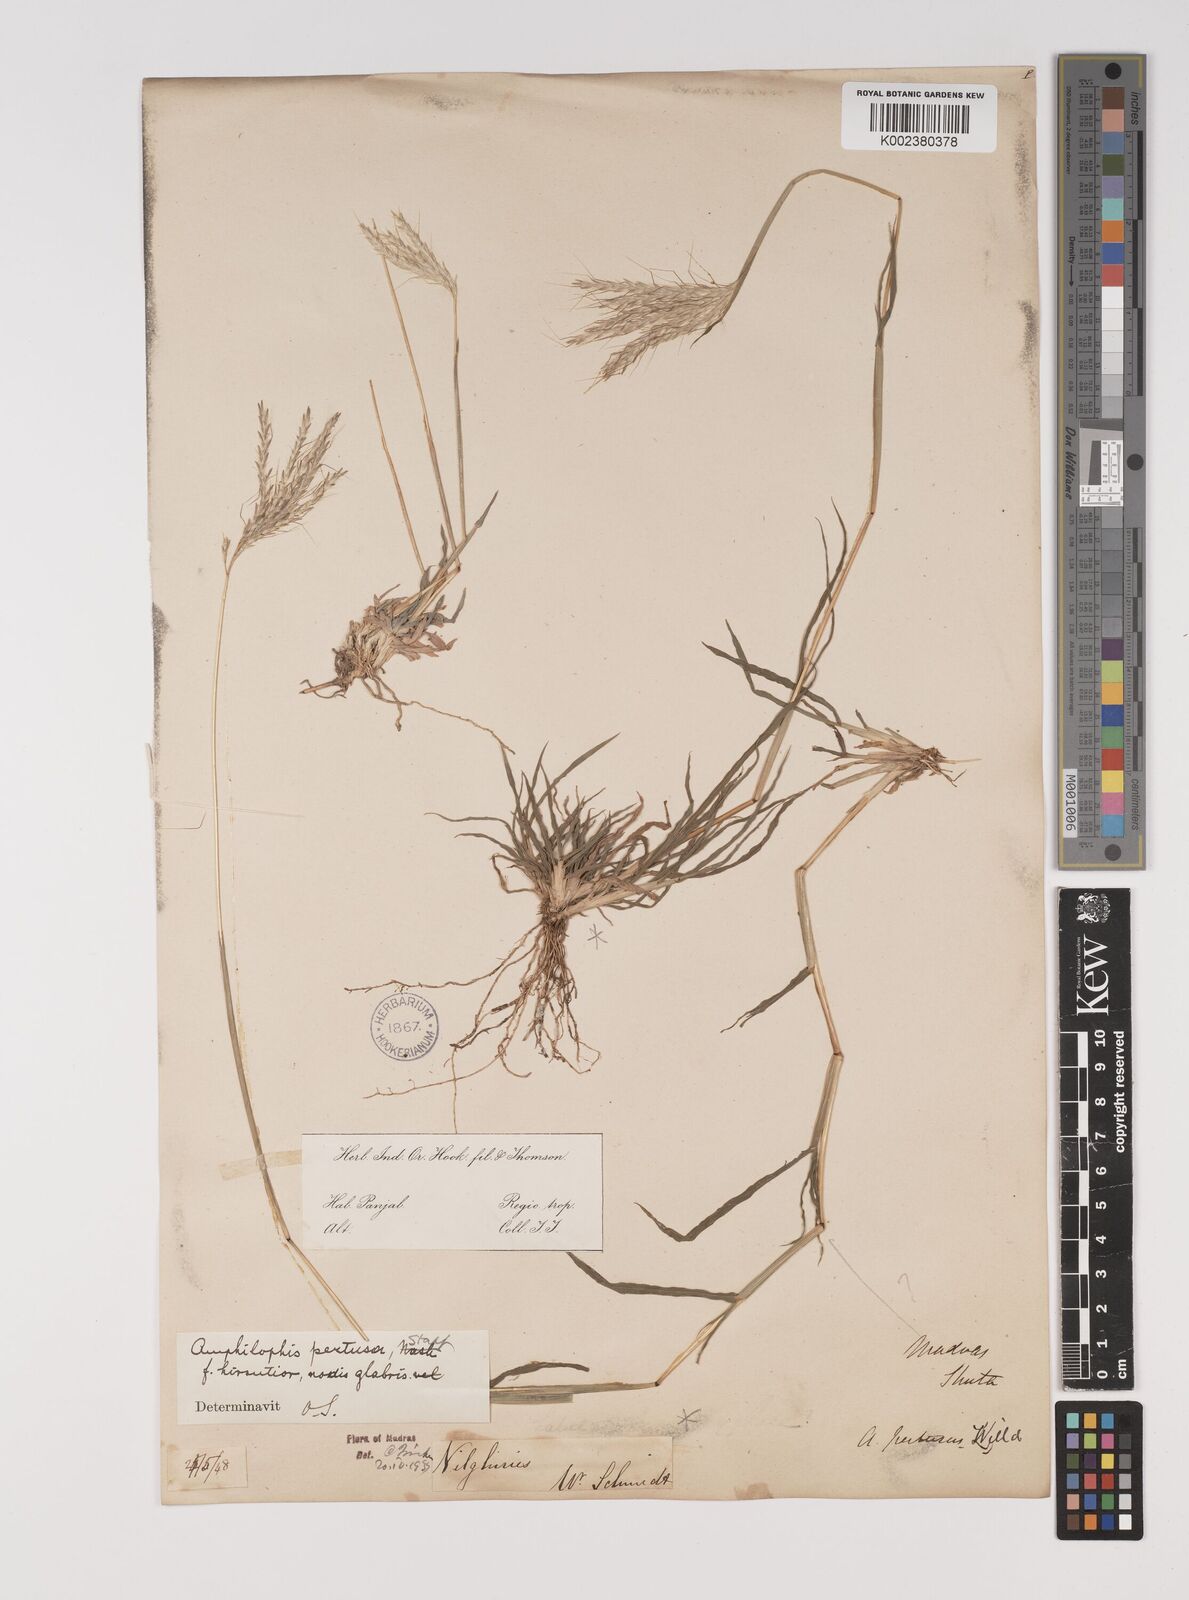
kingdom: Plantae
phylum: Tracheophyta
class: Liliopsida
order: Poales
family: Poaceae
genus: Bothriochloa
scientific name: Bothriochloa pertusa
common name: Pitted beardgrass
